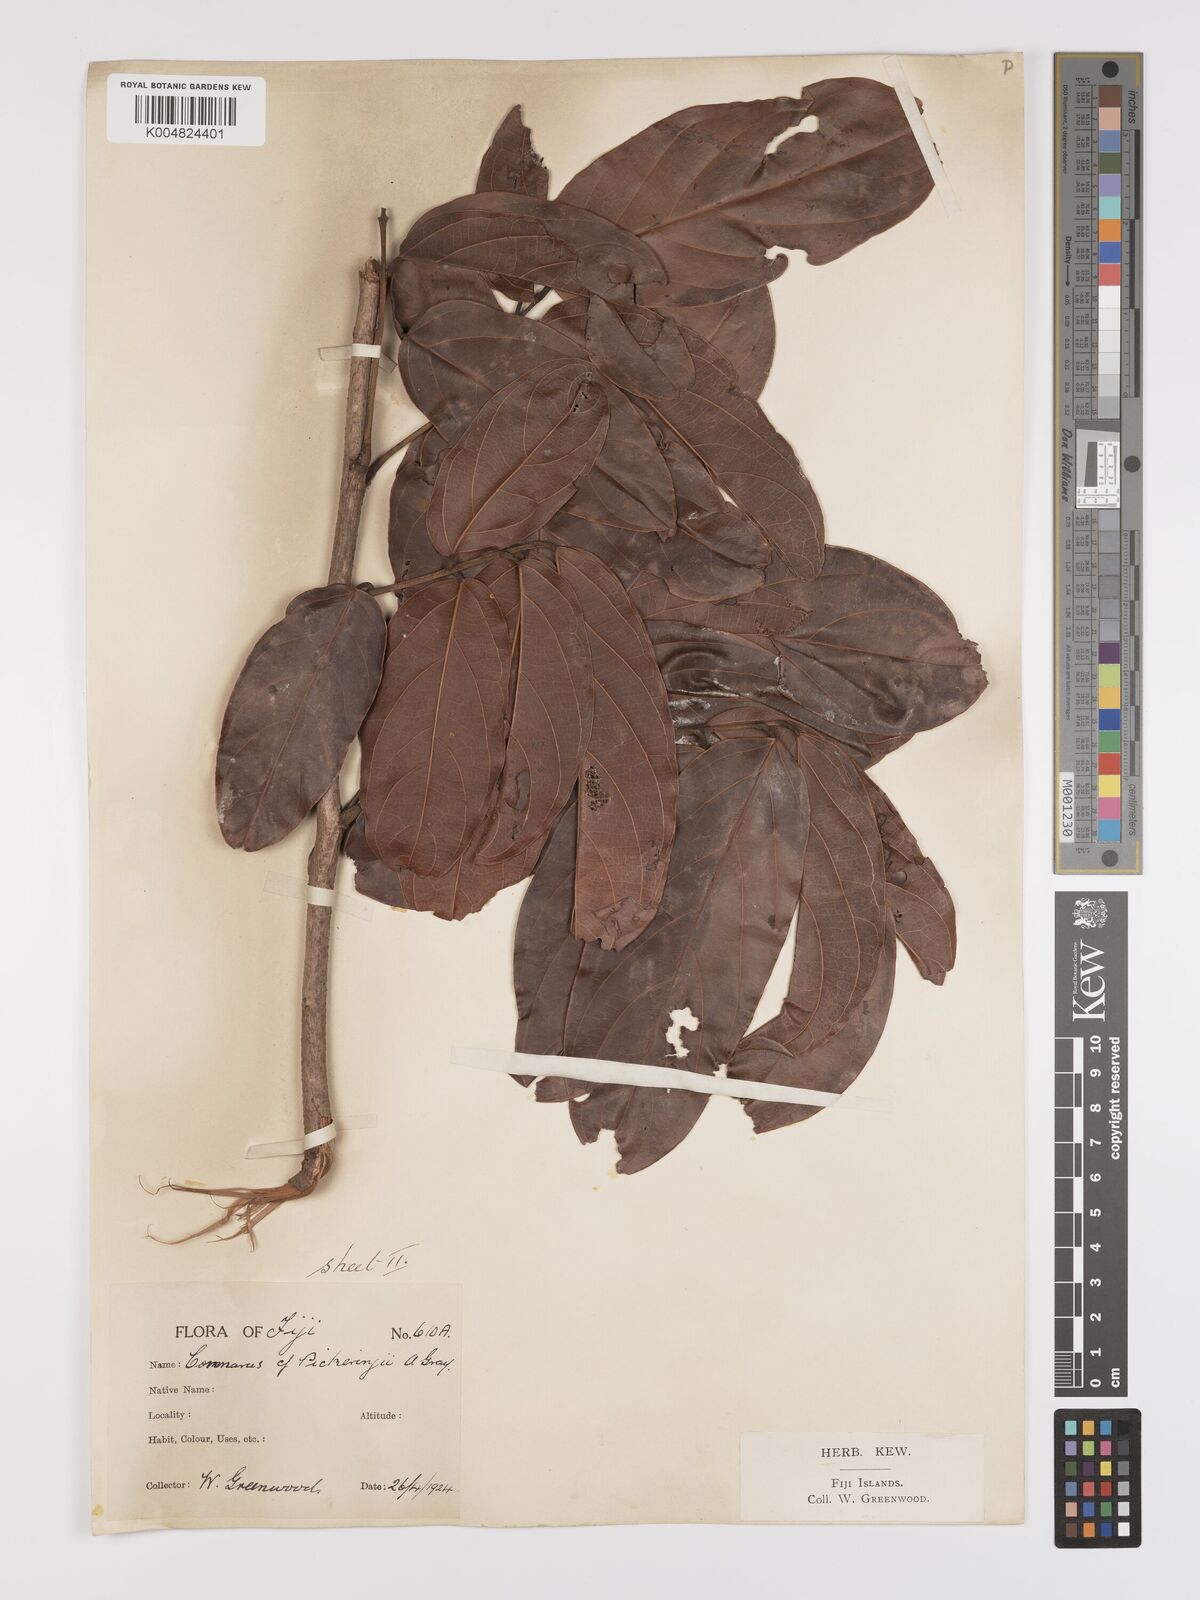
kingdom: Plantae
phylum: Tracheophyta
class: Magnoliopsida
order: Oxalidales
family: Connaraceae
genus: Connarus
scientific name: Connarus pickeringii
